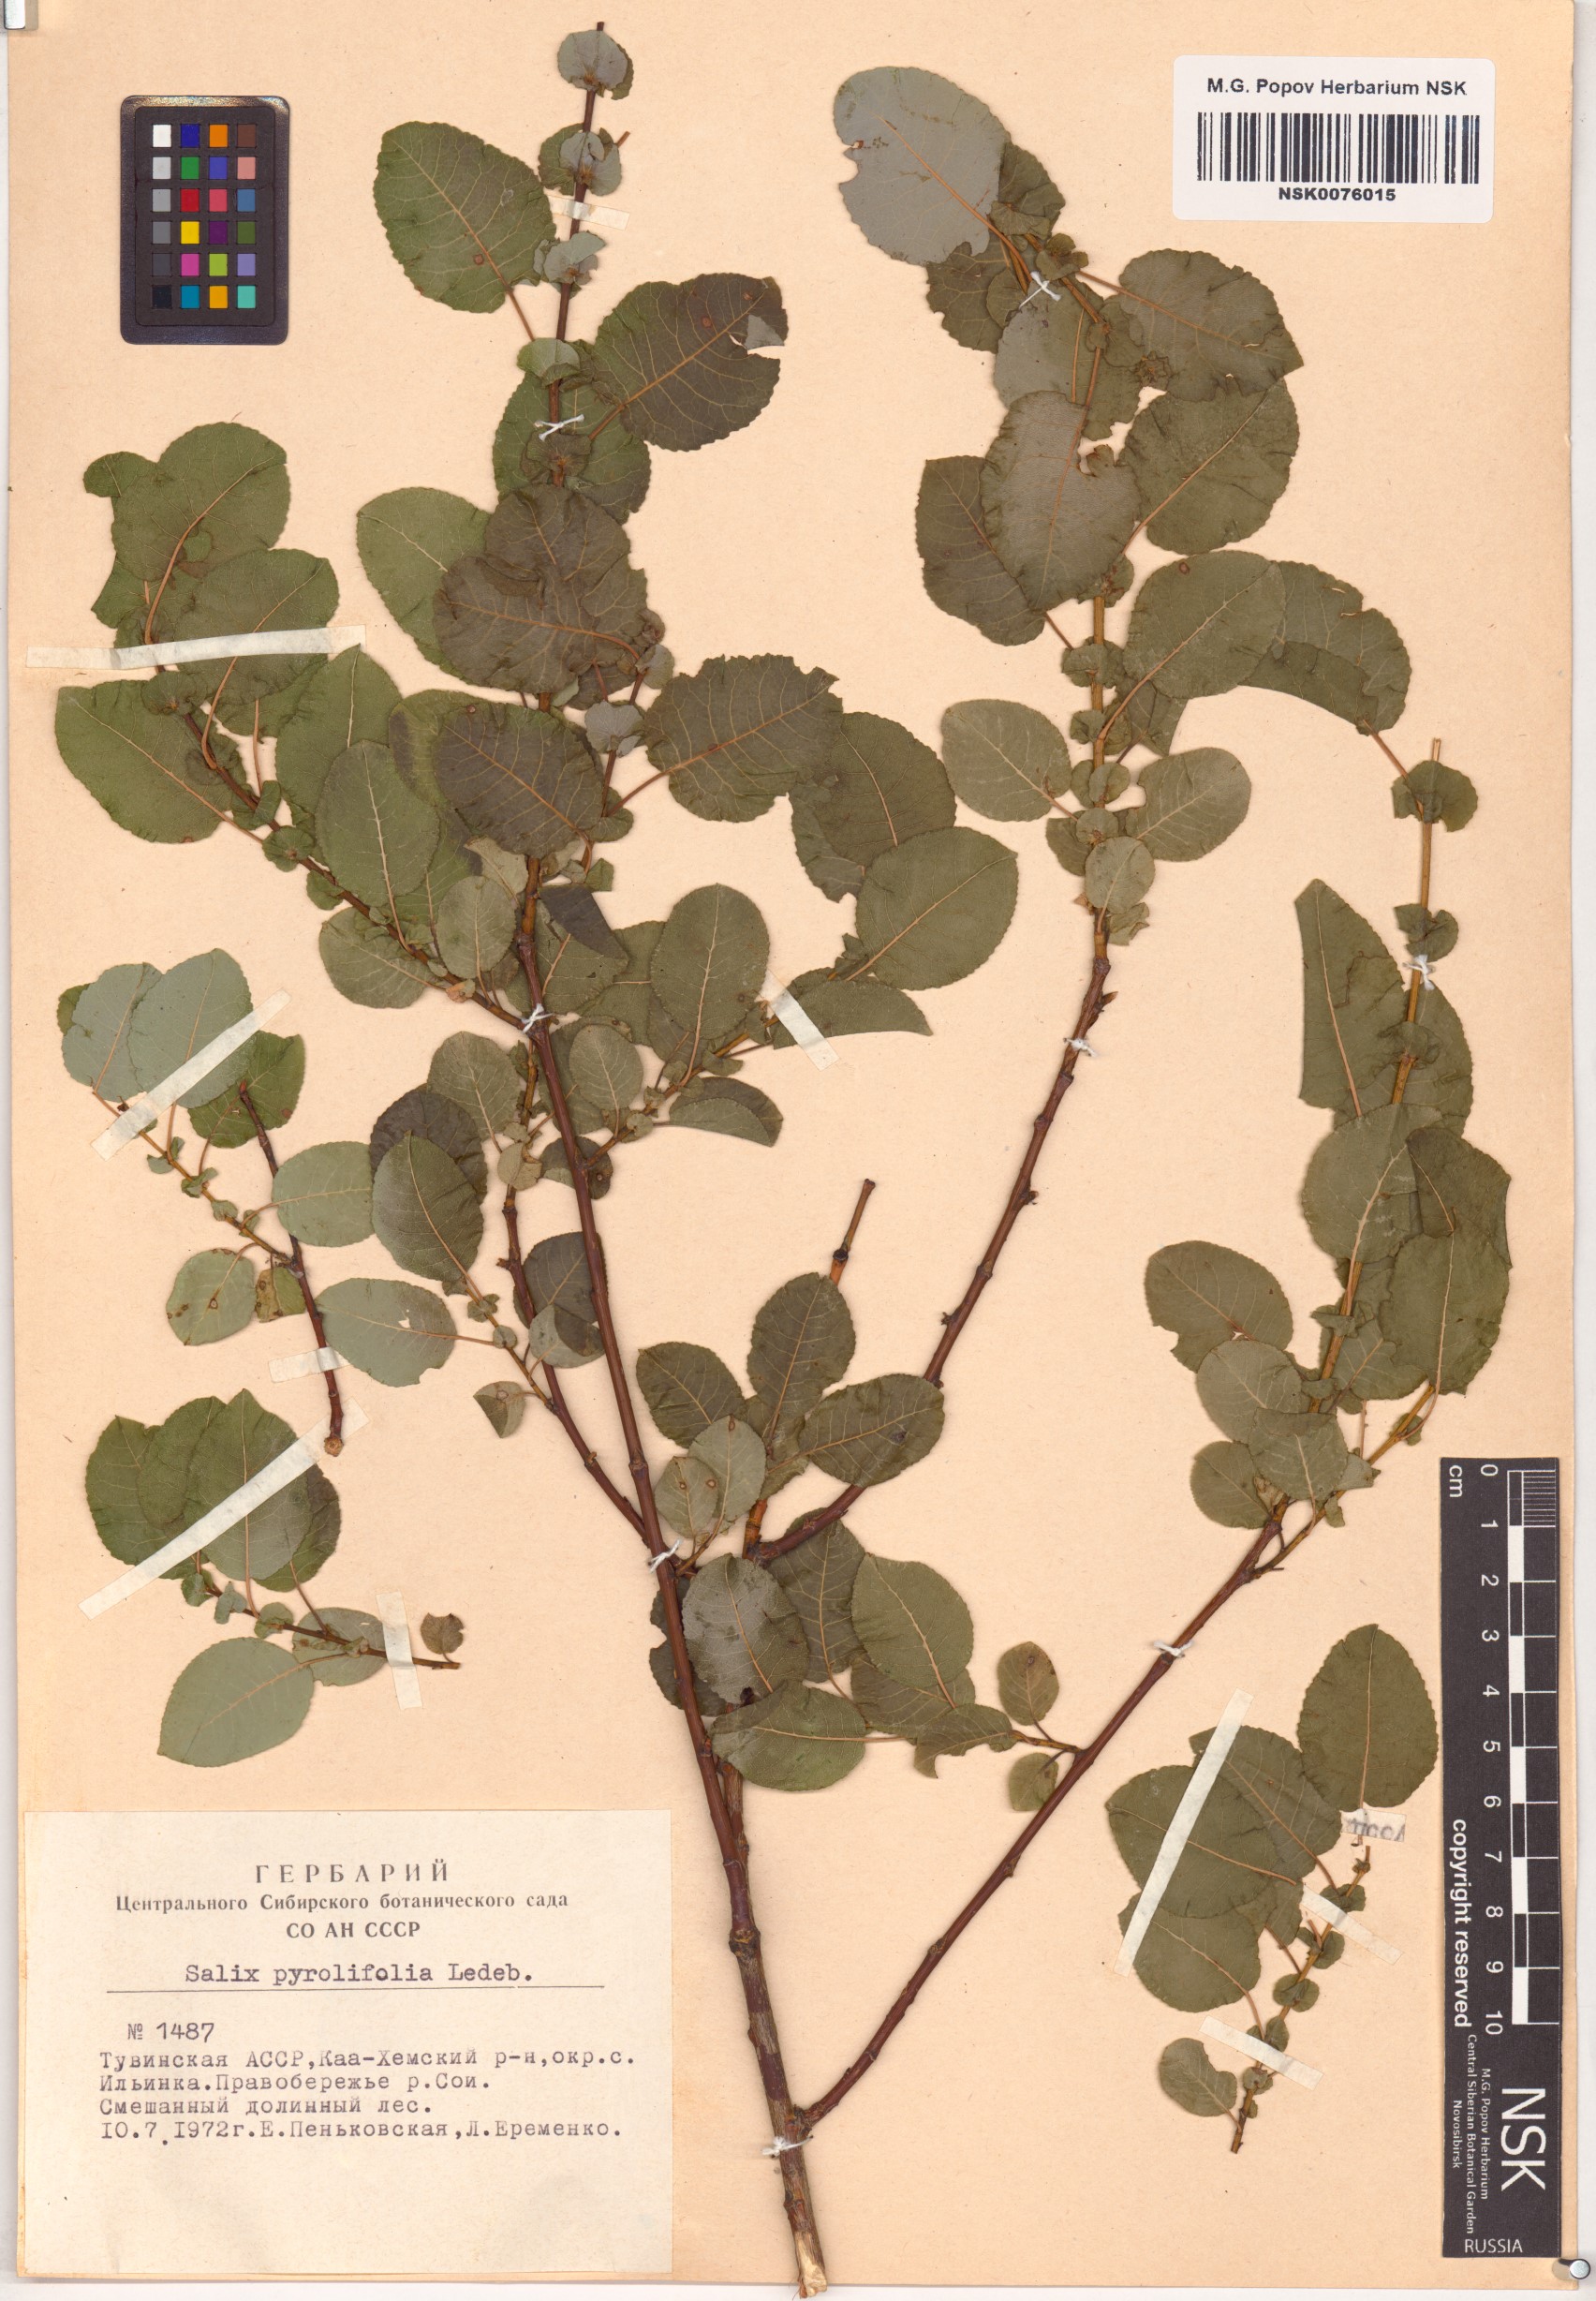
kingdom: Plantae
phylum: Tracheophyta
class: Magnoliopsida
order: Malpighiales
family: Salicaceae
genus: Salix
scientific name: Salix pyrolifolia
